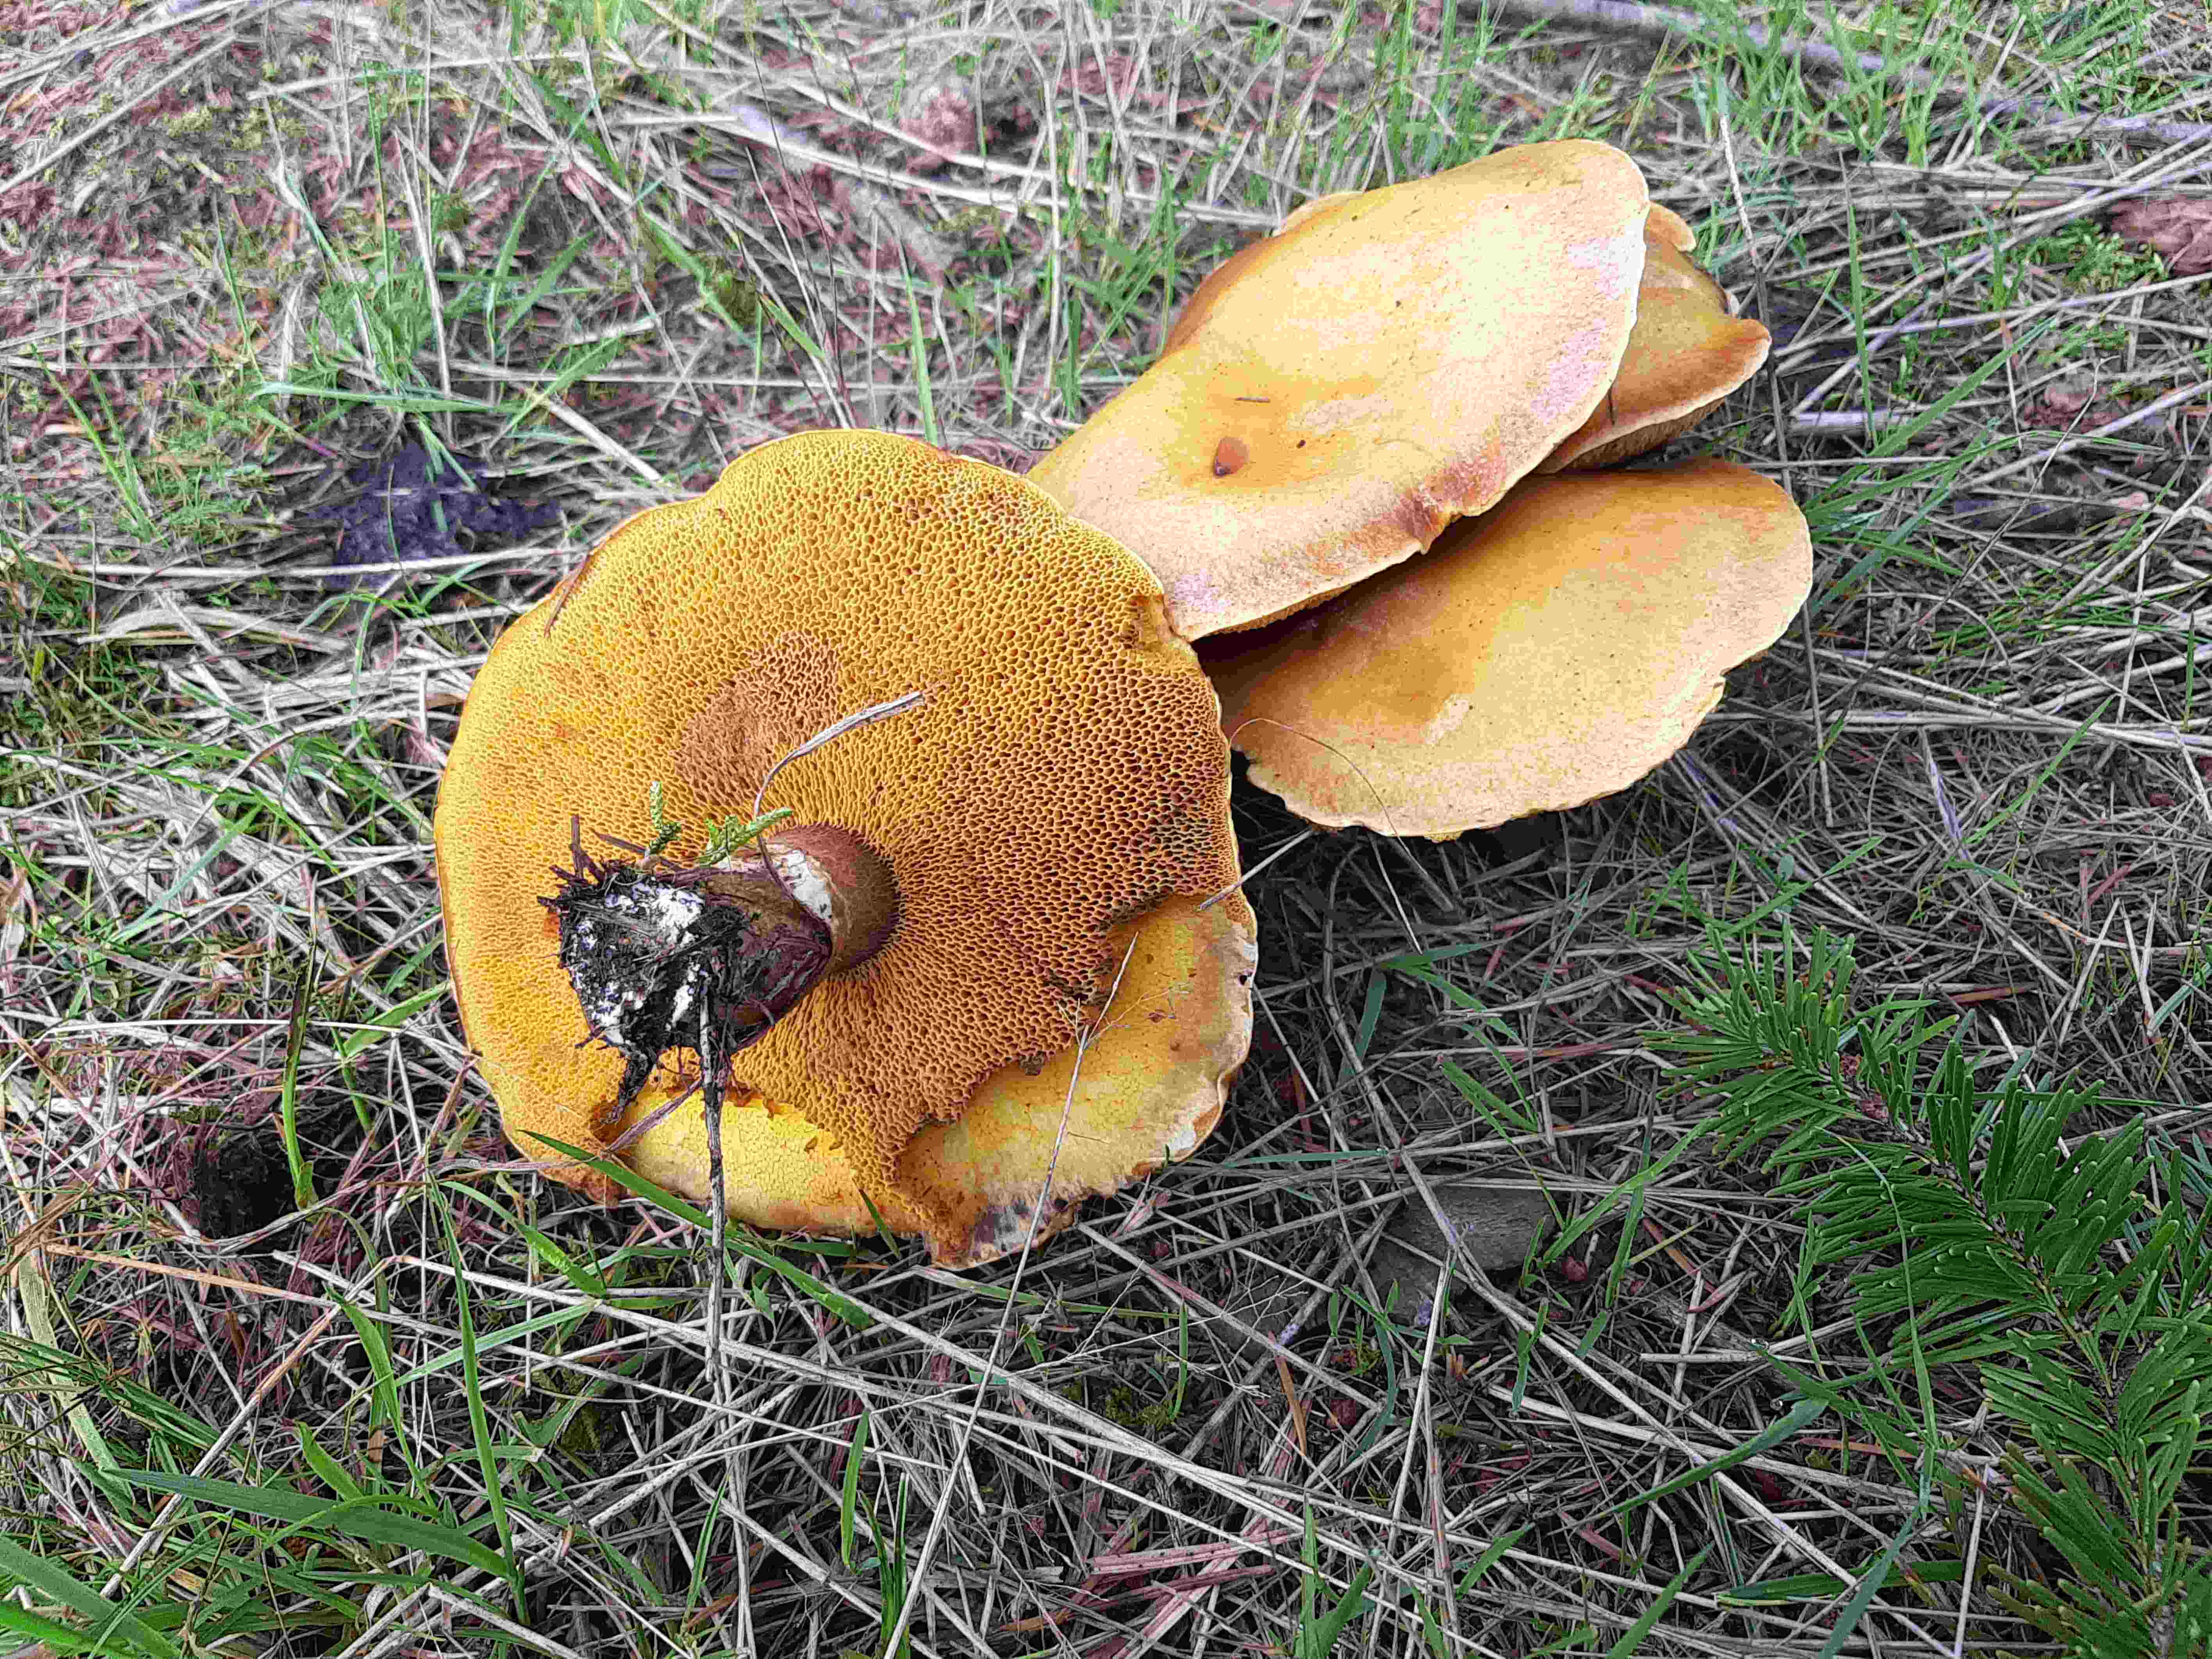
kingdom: Fungi
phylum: Basidiomycota
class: Agaricomycetes
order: Boletales
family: Suillaceae
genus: Suillus
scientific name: Suillus grevillei
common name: lærke-slimrørhat
